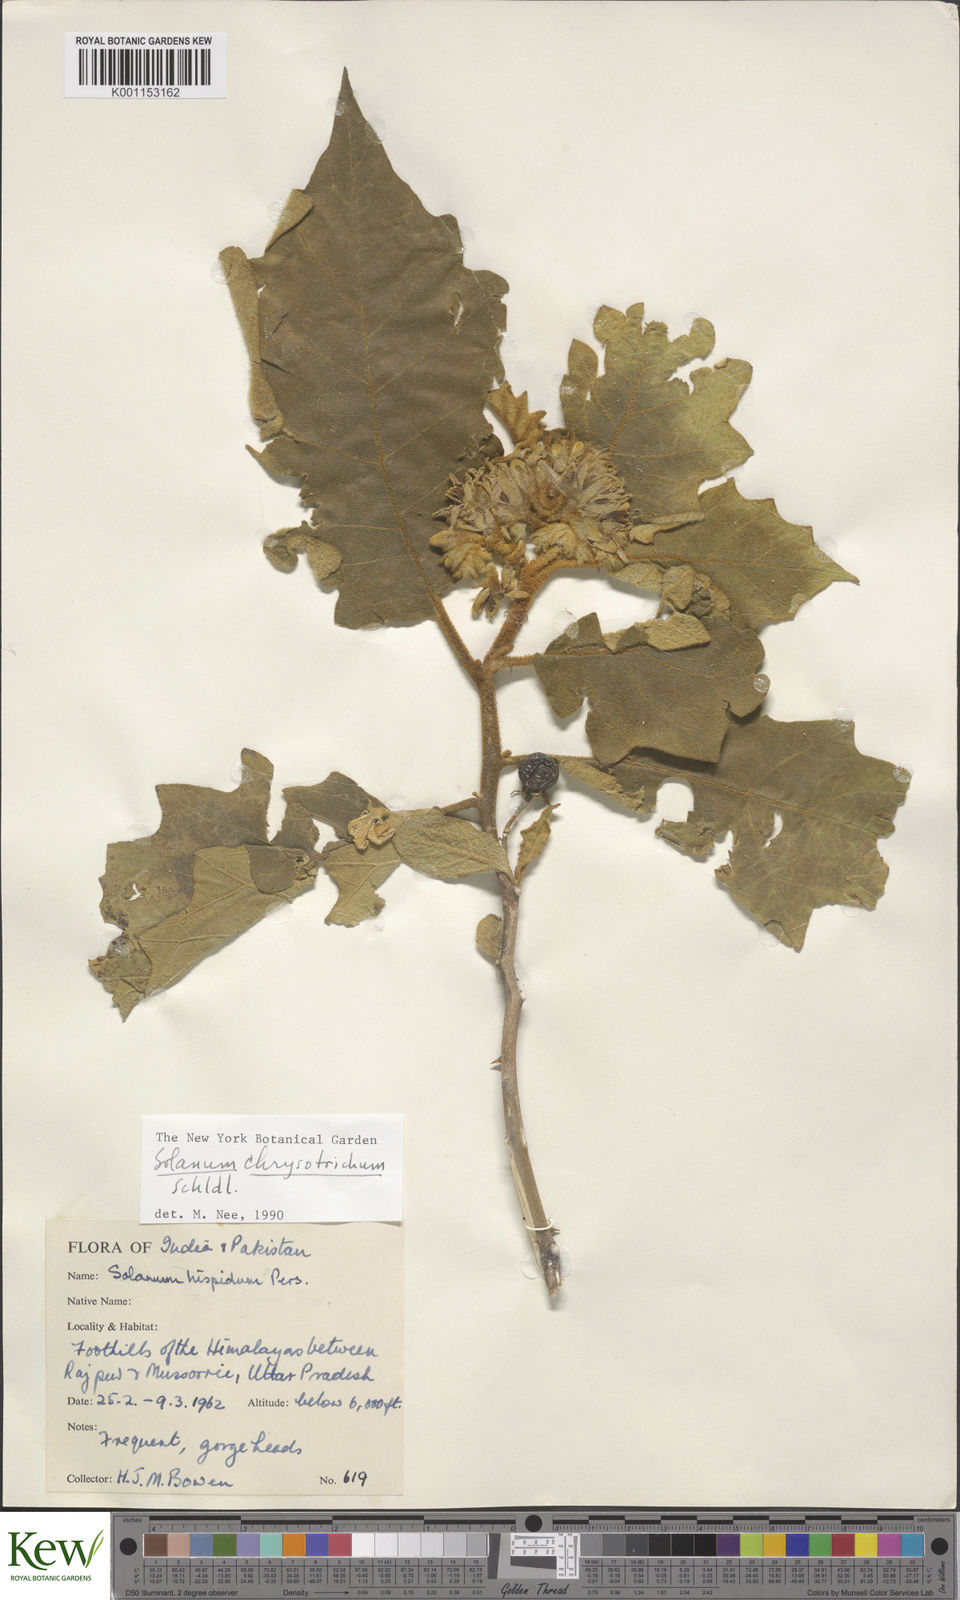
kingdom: Plantae
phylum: Tracheophyta
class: Magnoliopsida
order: Solanales
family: Solanaceae
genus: Solanum
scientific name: Solanum asperolanatum
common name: Devil's-fig
